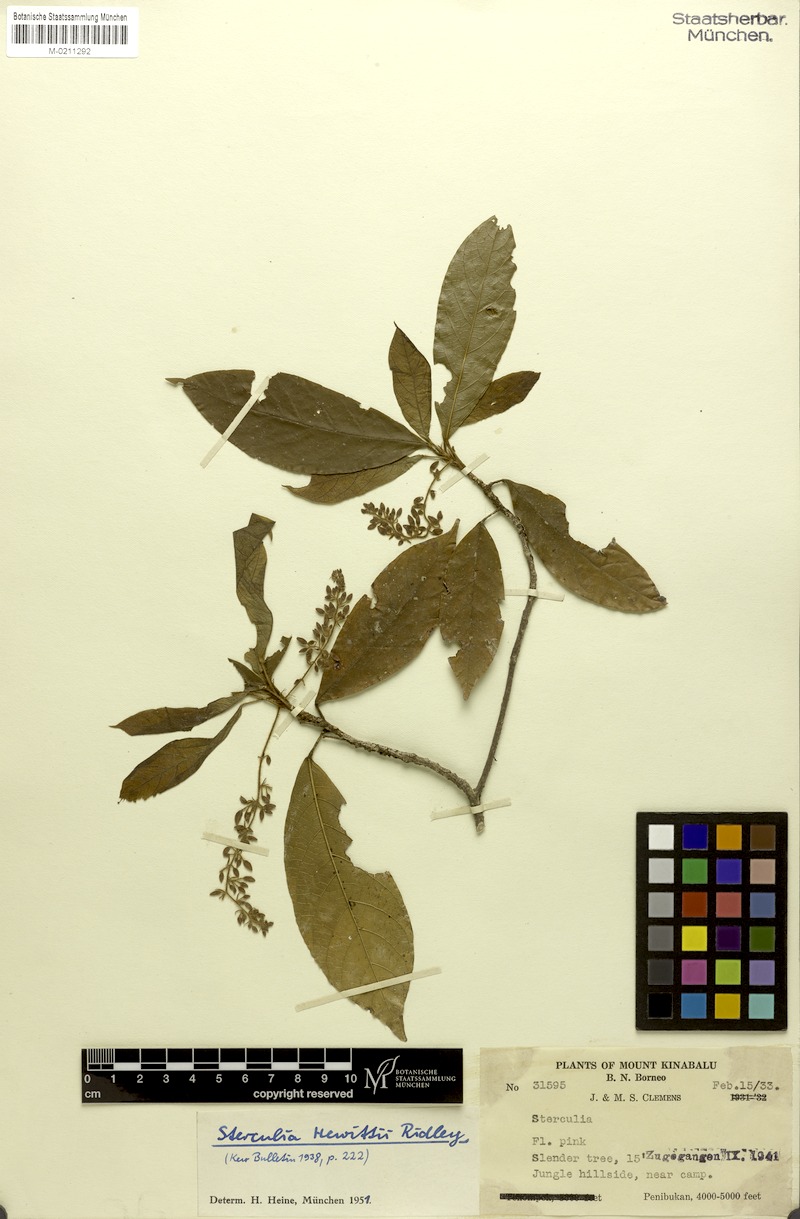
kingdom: Plantae
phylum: Tracheophyta
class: Magnoliopsida
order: Malvales
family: Malvaceae
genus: Sterculia
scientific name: Sterculia hewittii
